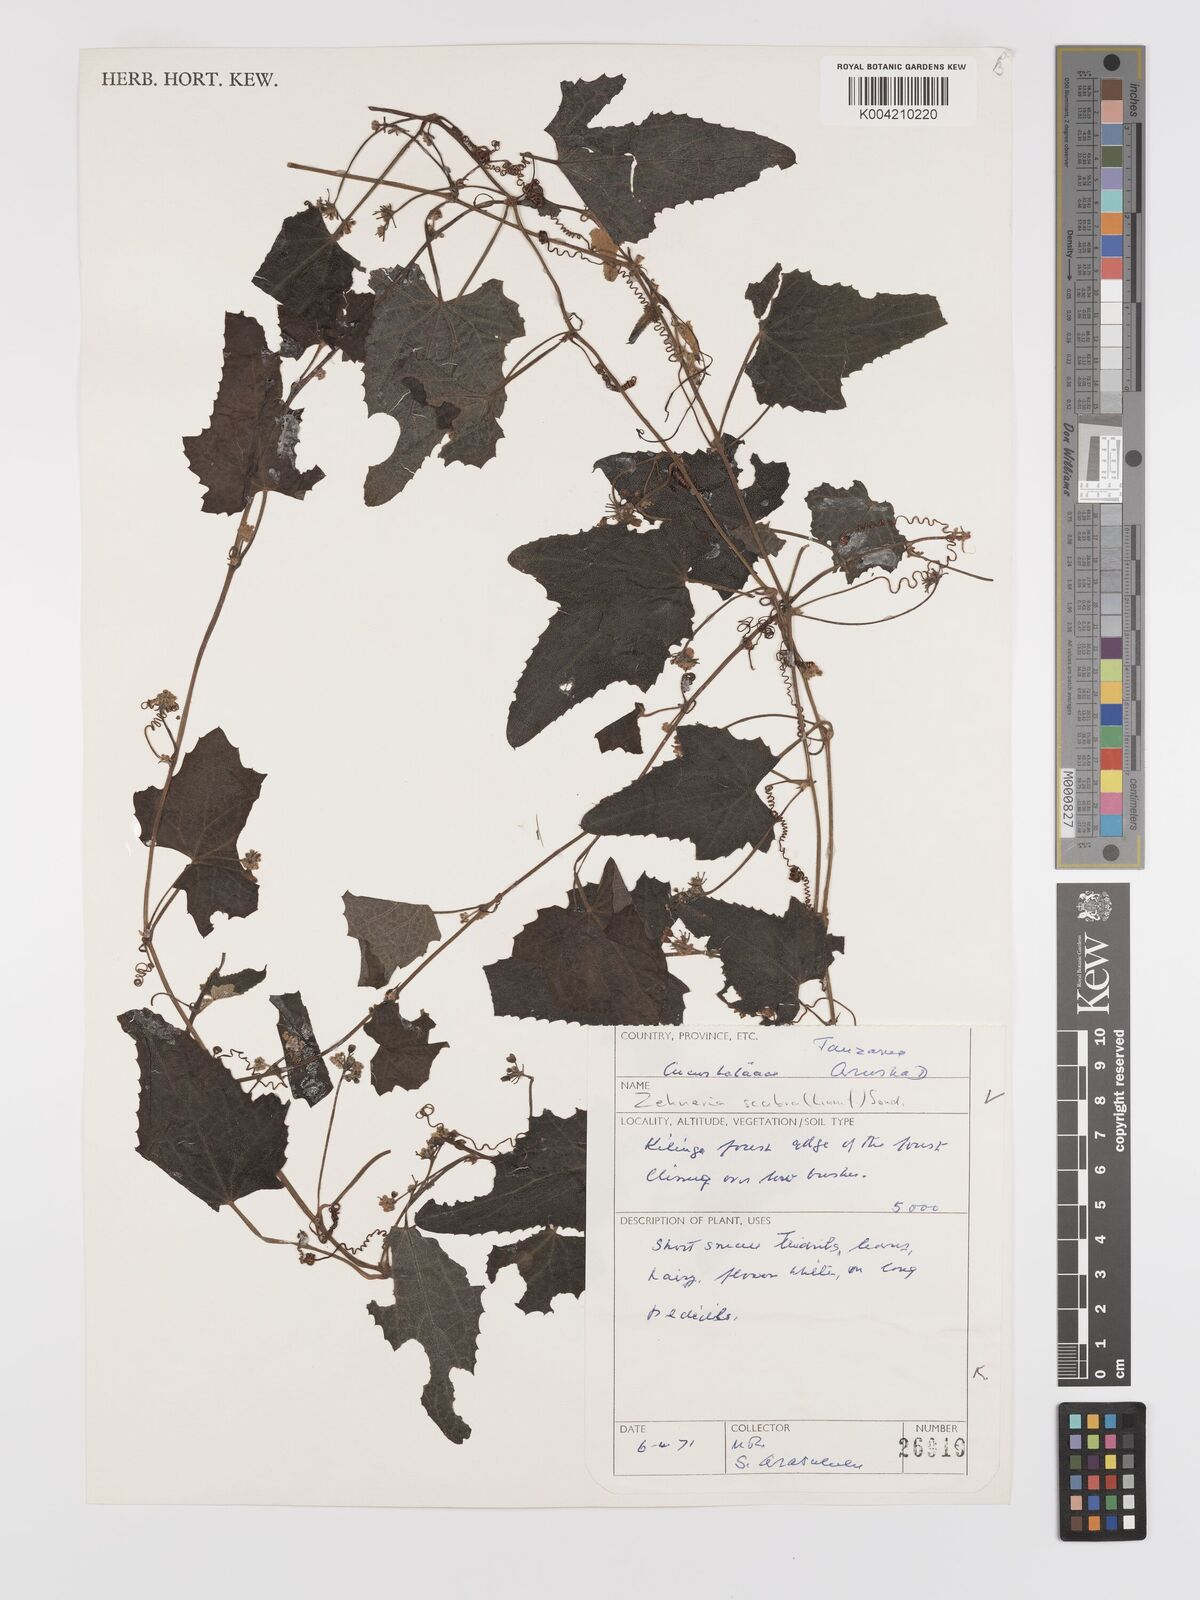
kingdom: Plantae
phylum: Tracheophyta
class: Magnoliopsida
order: Cucurbitales
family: Cucurbitaceae
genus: Zehneria
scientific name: Zehneria scabra
